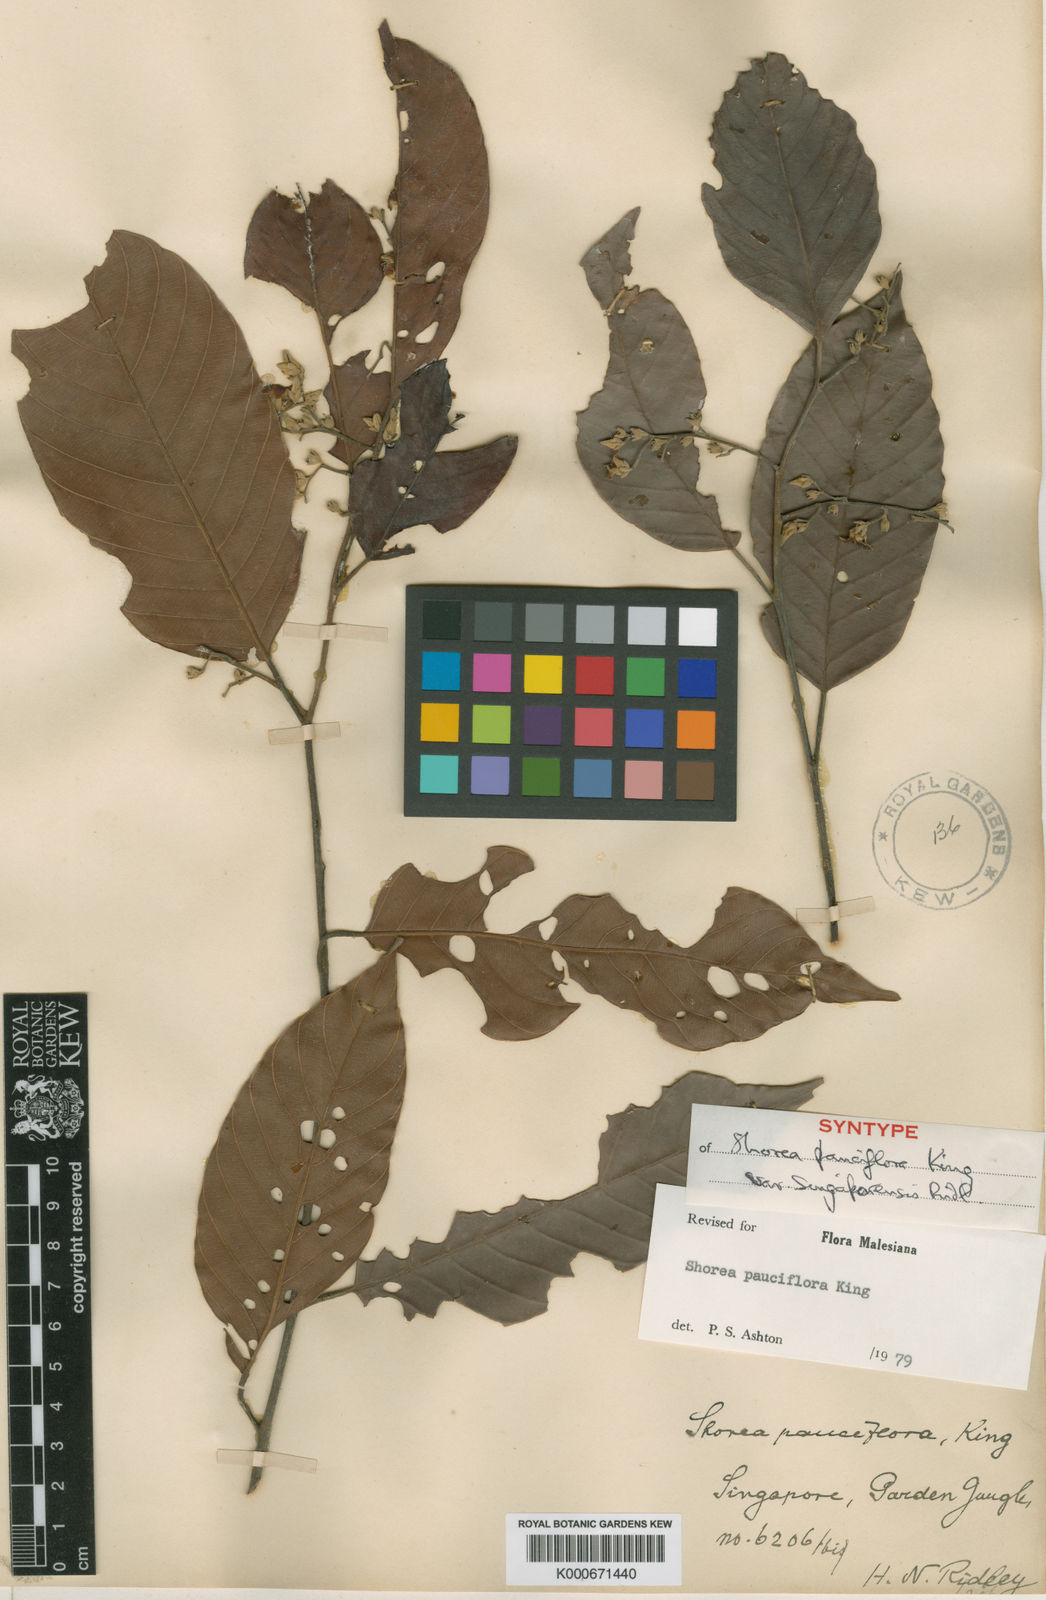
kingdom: Plantae
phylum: Tracheophyta
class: Magnoliopsida
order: Malvales
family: Dipterocarpaceae
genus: Shorea
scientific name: Shorea pauciflora
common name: Dark red meranti
